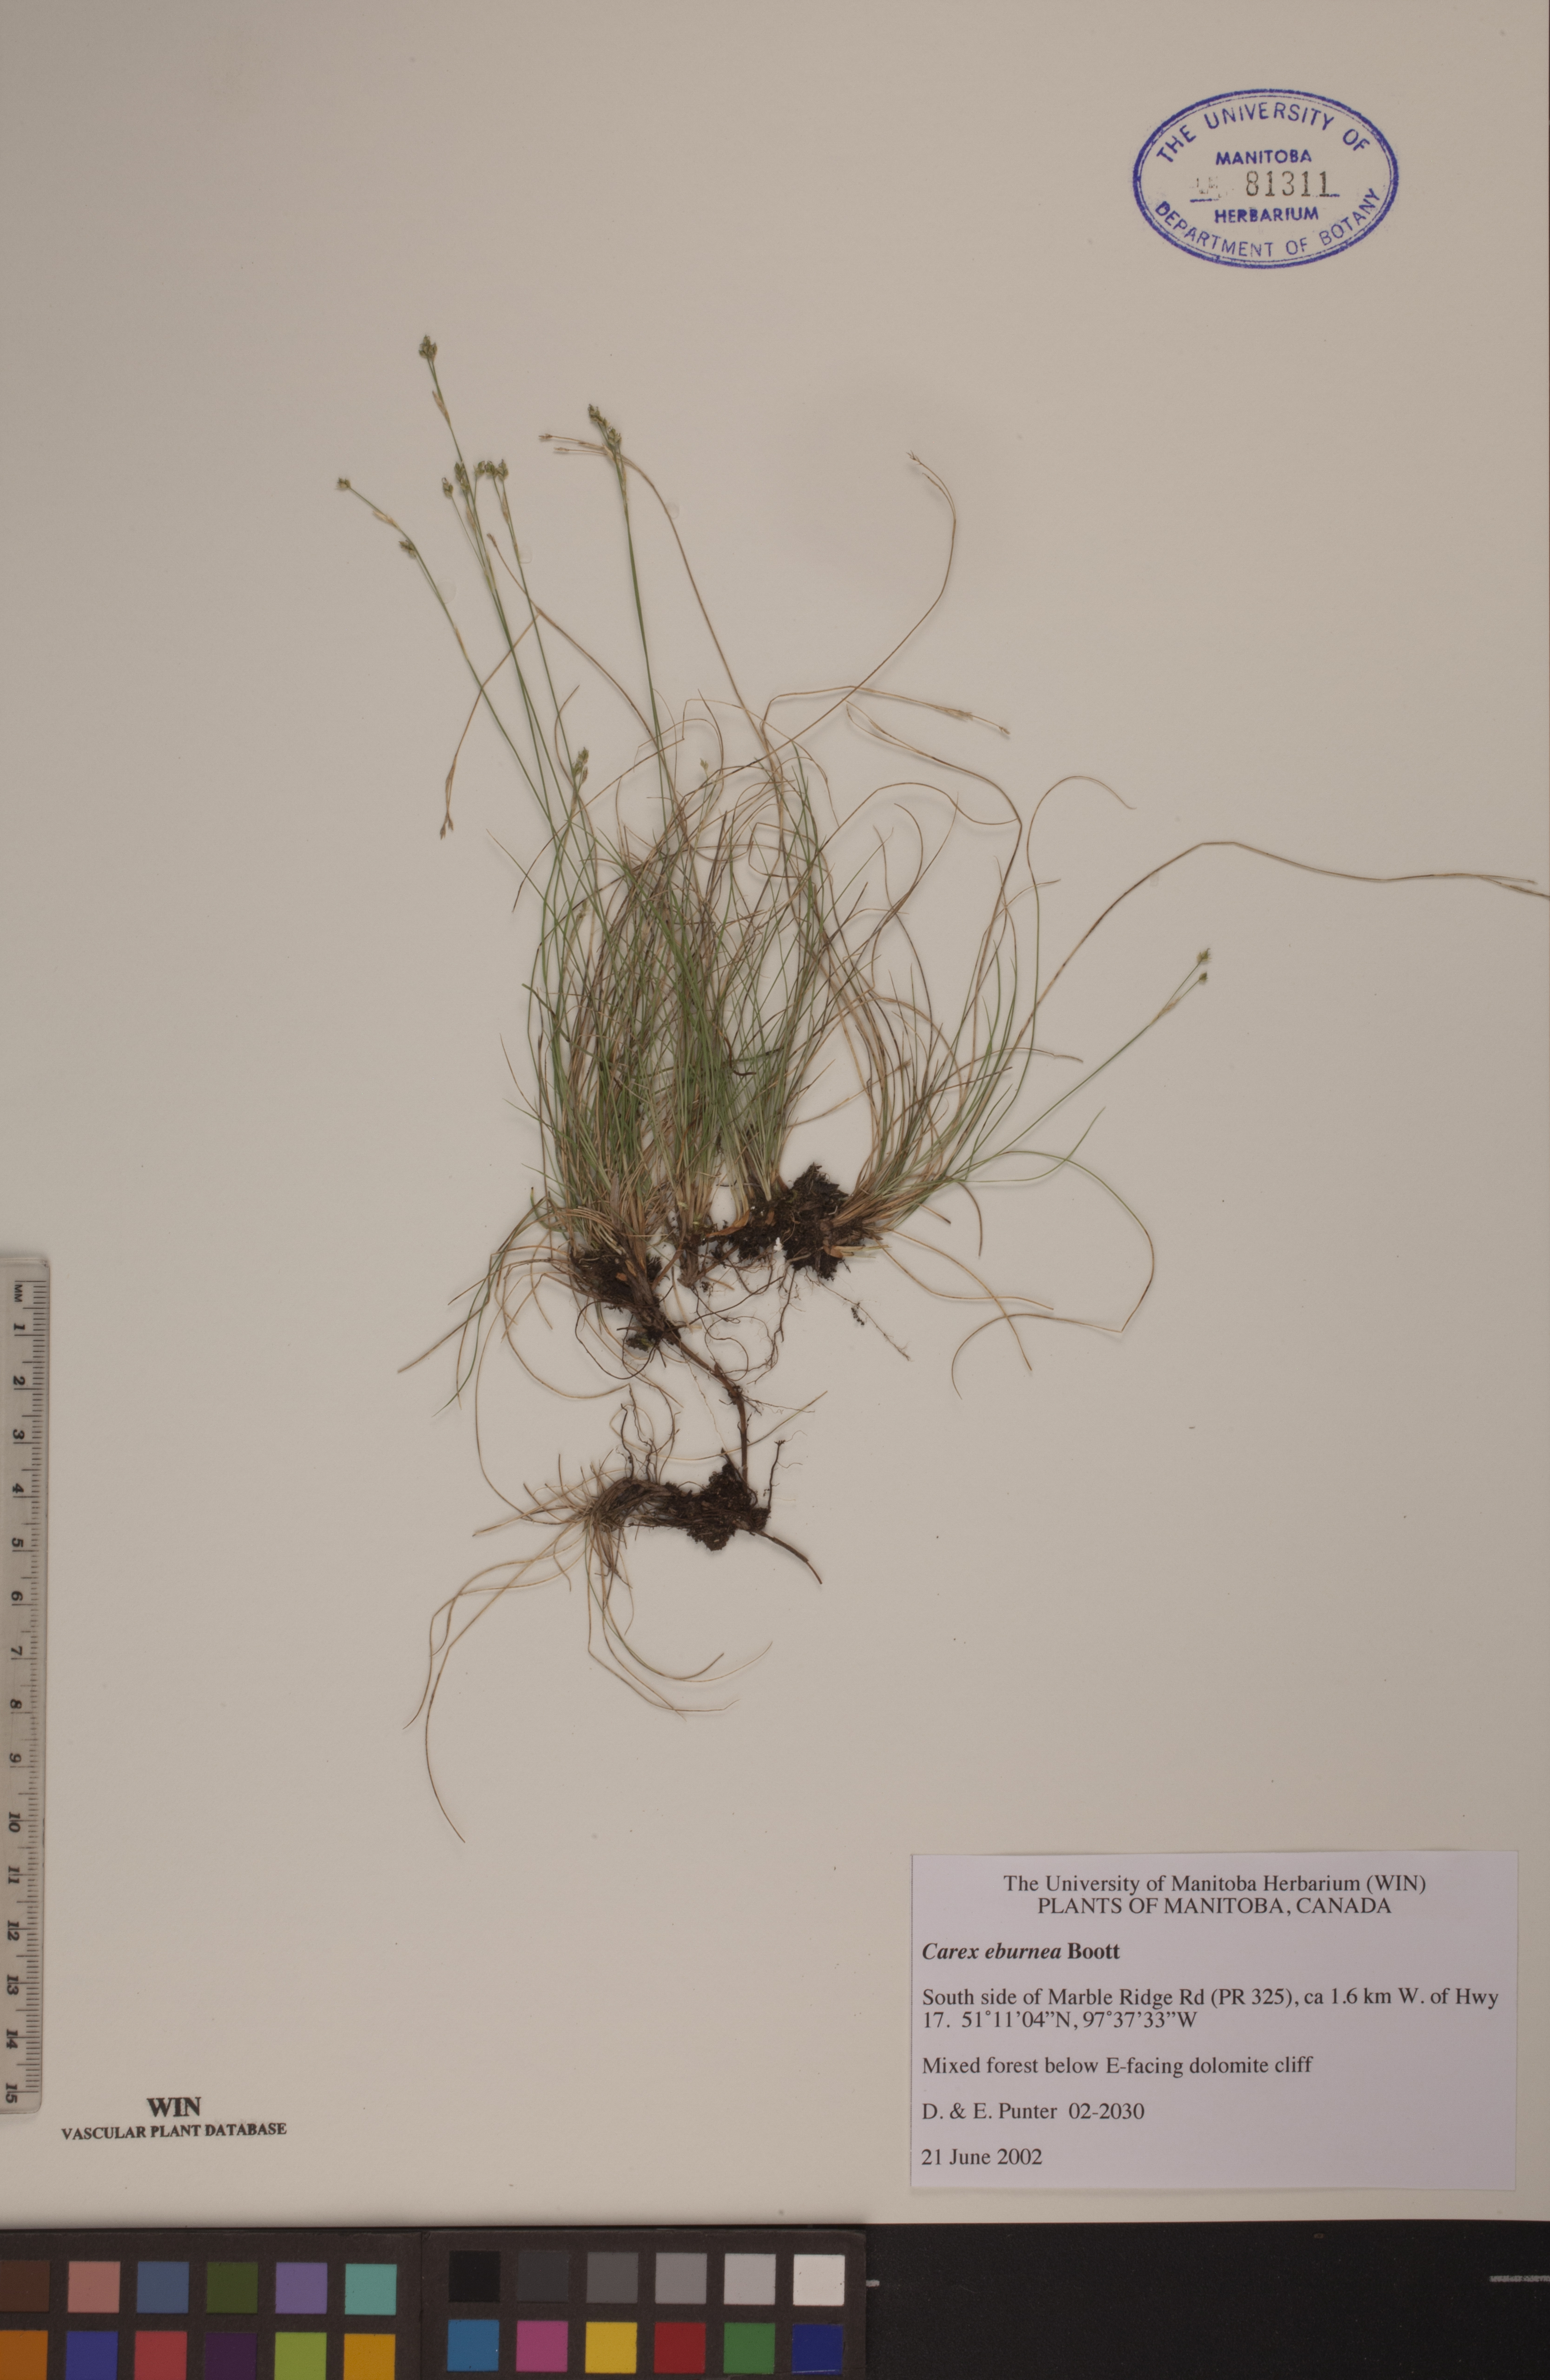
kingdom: Plantae
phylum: Tracheophyta
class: Liliopsida
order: Poales
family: Cyperaceae
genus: Carex
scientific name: Carex eburnea
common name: Bristle-leaved sedge
